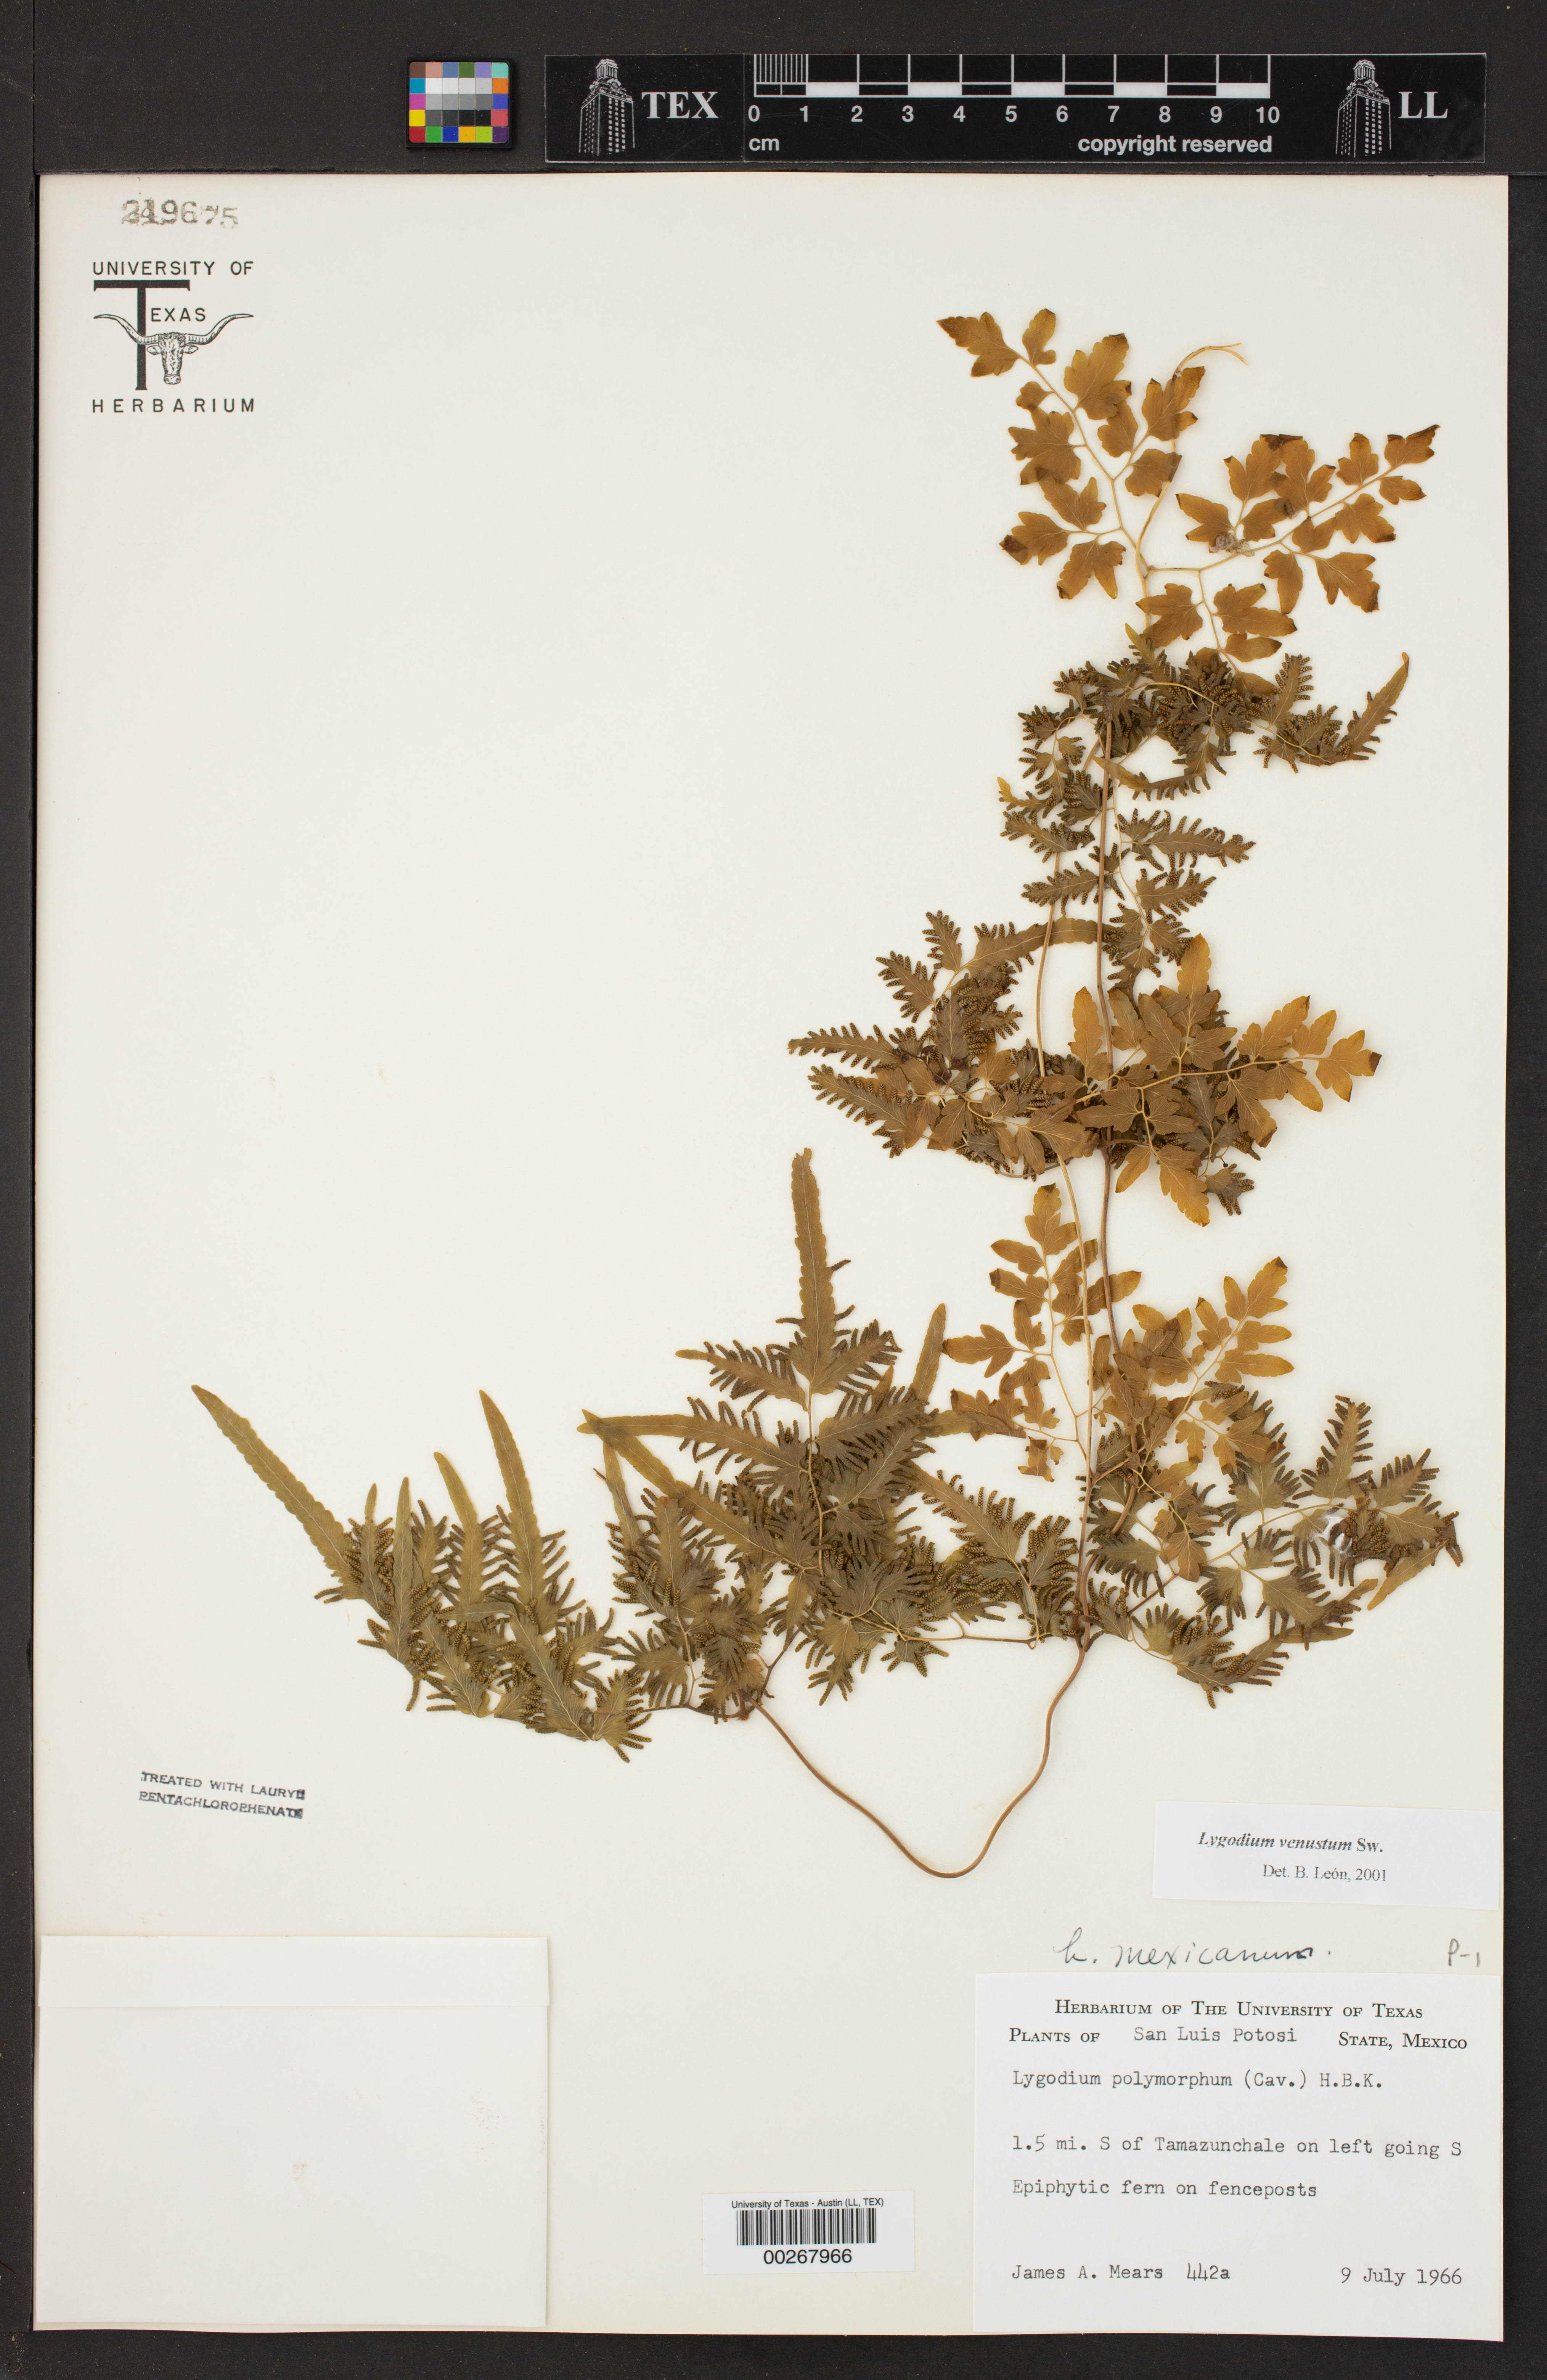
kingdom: Plantae
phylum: Tracheophyta
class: Polypodiopsida
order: Schizaeales
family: Lygodiaceae
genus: Lygodium
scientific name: Lygodium venustum
